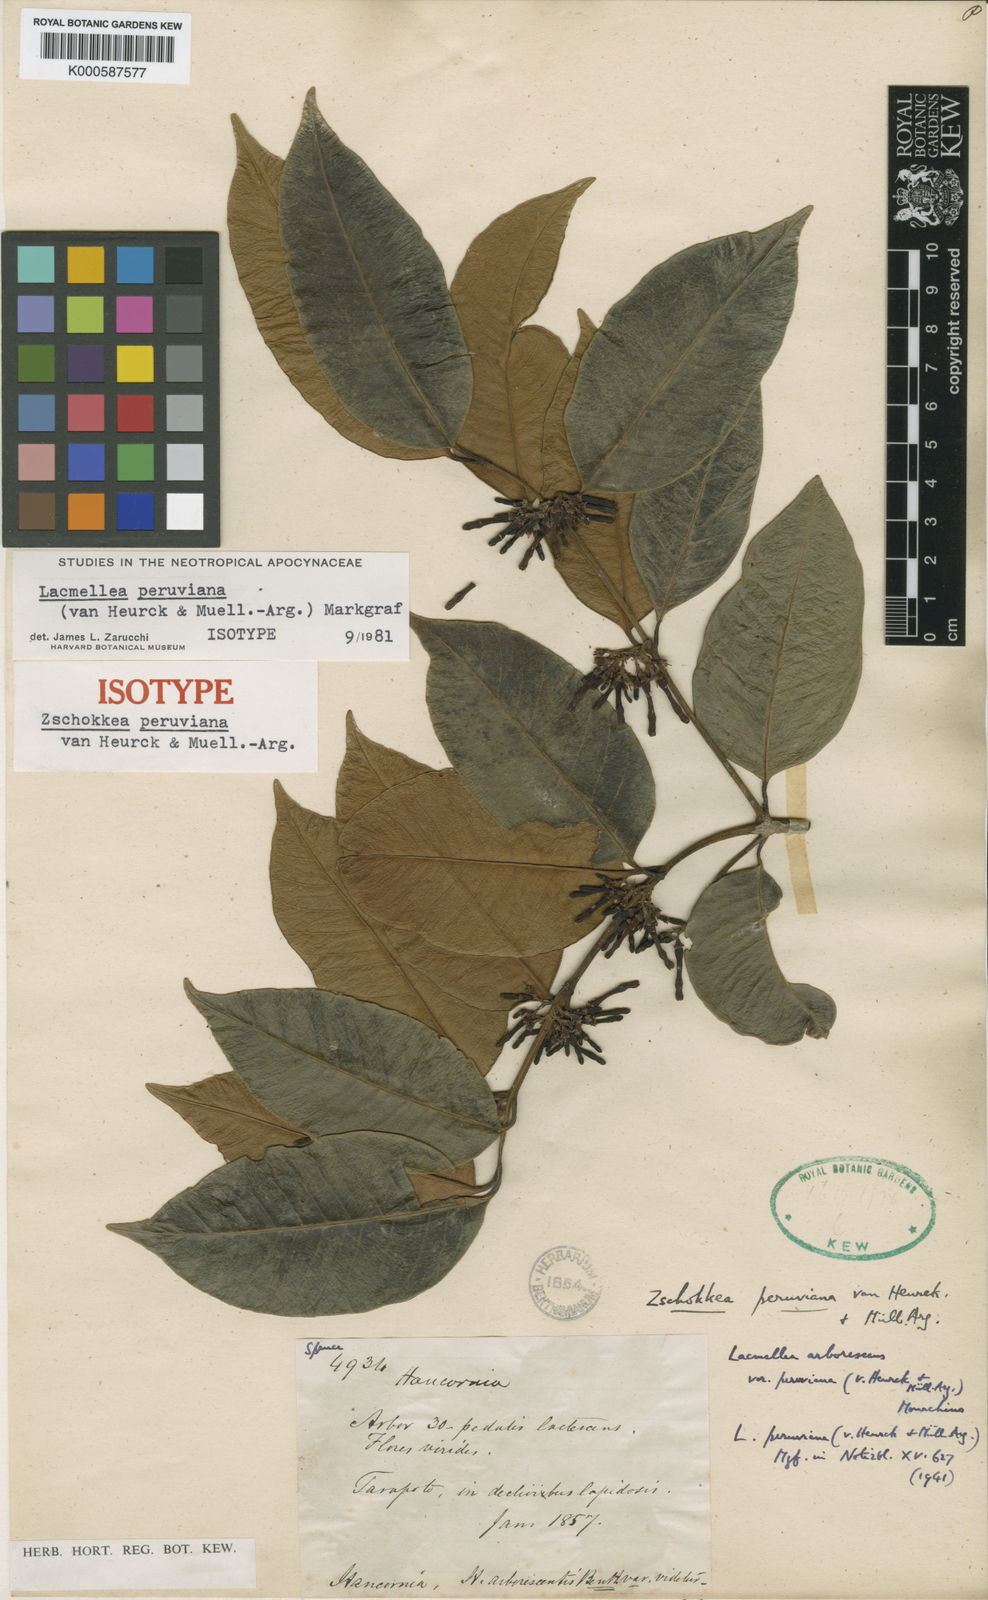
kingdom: Plantae
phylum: Tracheophyta
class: Magnoliopsida
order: Gentianales
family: Apocynaceae
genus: Lacmellea
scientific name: Lacmellea
